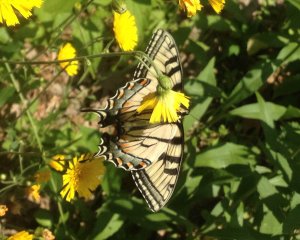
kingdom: Animalia
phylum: Arthropoda
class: Insecta
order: Lepidoptera
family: Papilionidae
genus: Pterourus
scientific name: Pterourus
